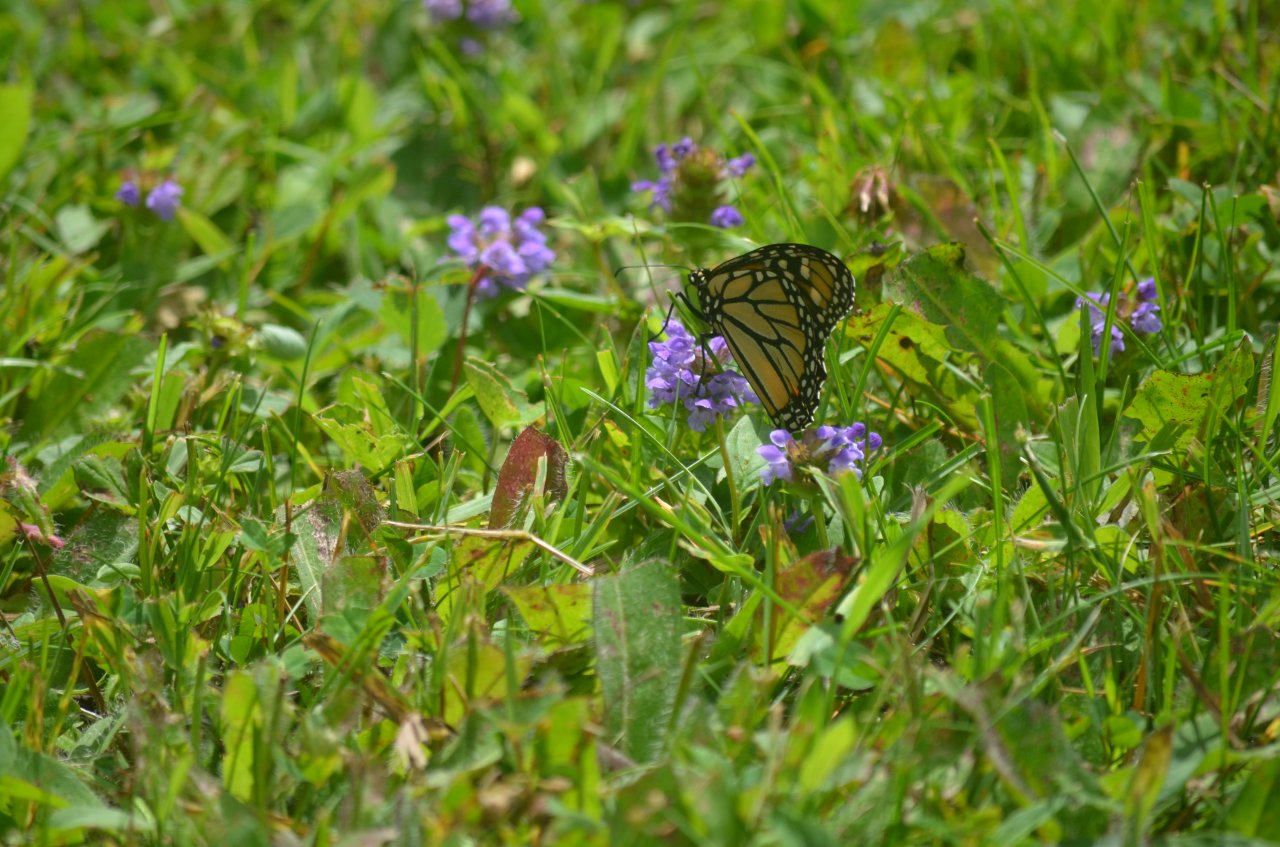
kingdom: Animalia
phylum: Arthropoda
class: Insecta
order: Lepidoptera
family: Nymphalidae
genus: Danaus
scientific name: Danaus plexippus
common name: Monarch
